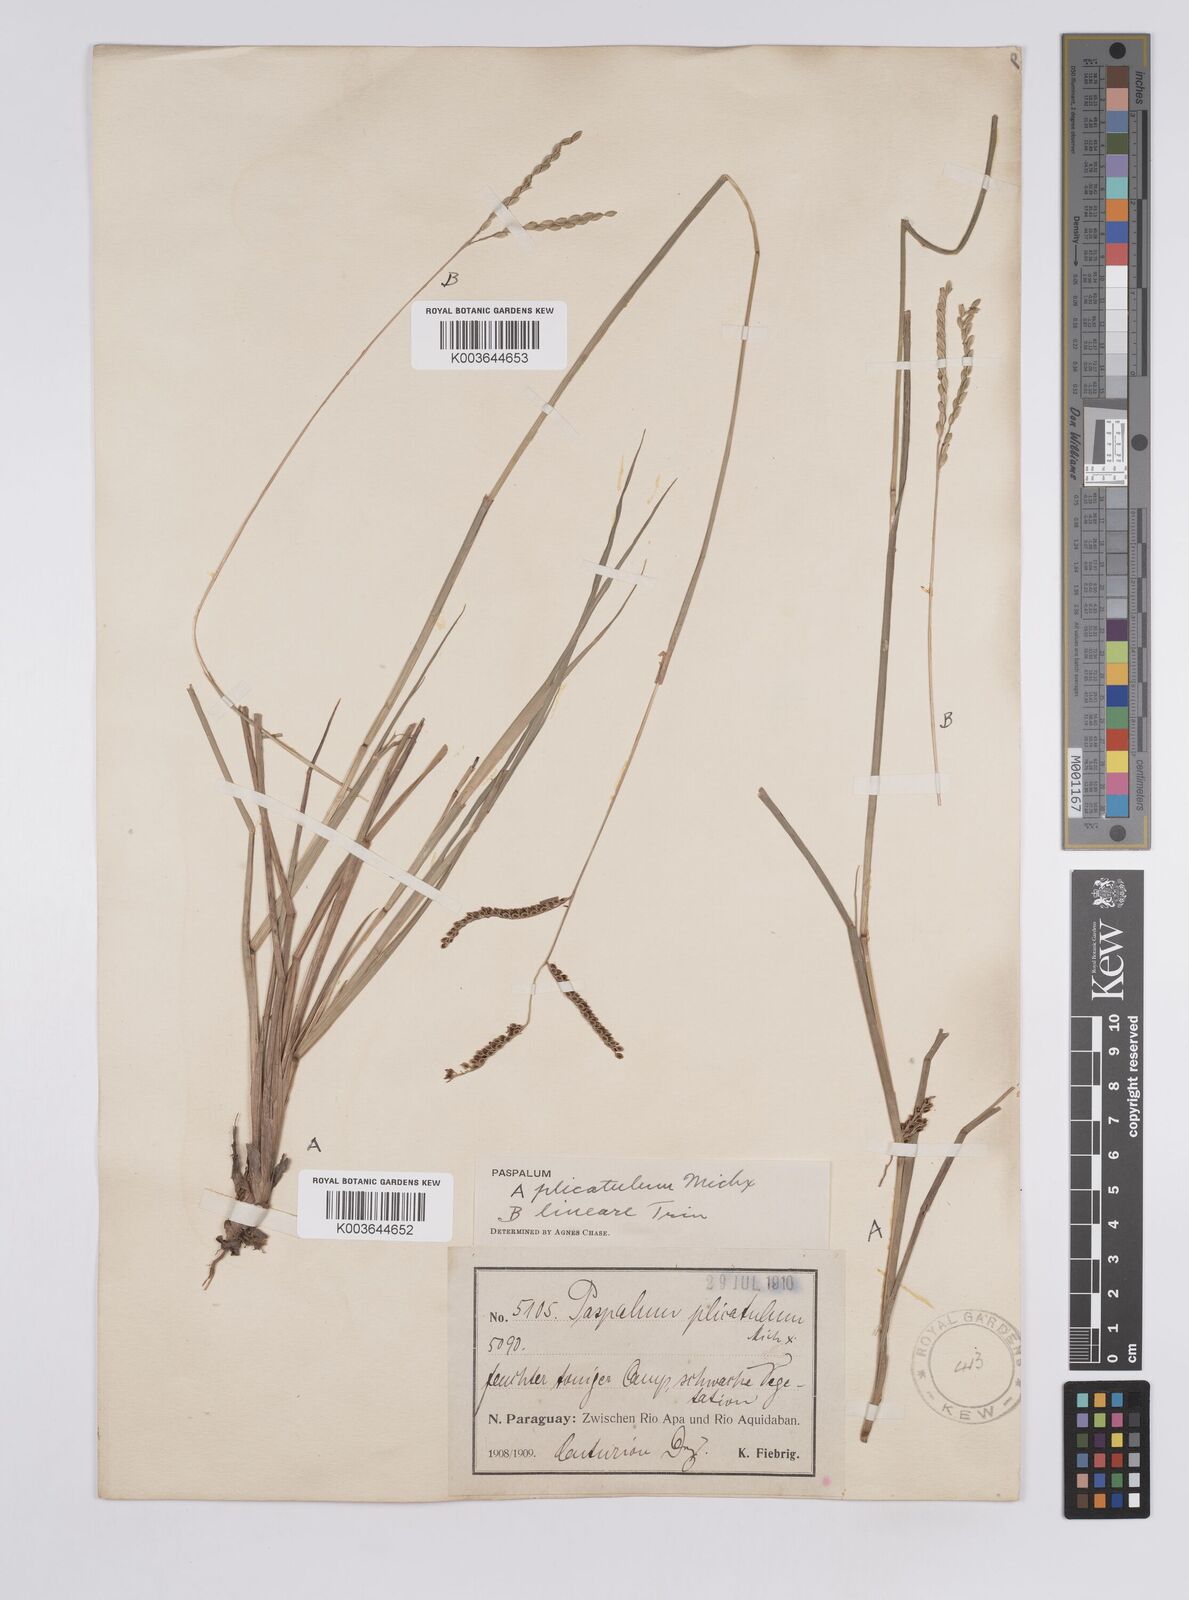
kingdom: Plantae
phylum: Tracheophyta
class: Liliopsida
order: Poales
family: Poaceae
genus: Paspalum
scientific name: Paspalum plicatulum
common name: Top paspalum
